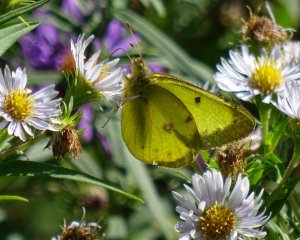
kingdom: Animalia
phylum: Arthropoda
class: Insecta
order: Lepidoptera
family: Pieridae
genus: Colias
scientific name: Colias philodice
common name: Clouded Sulphur
